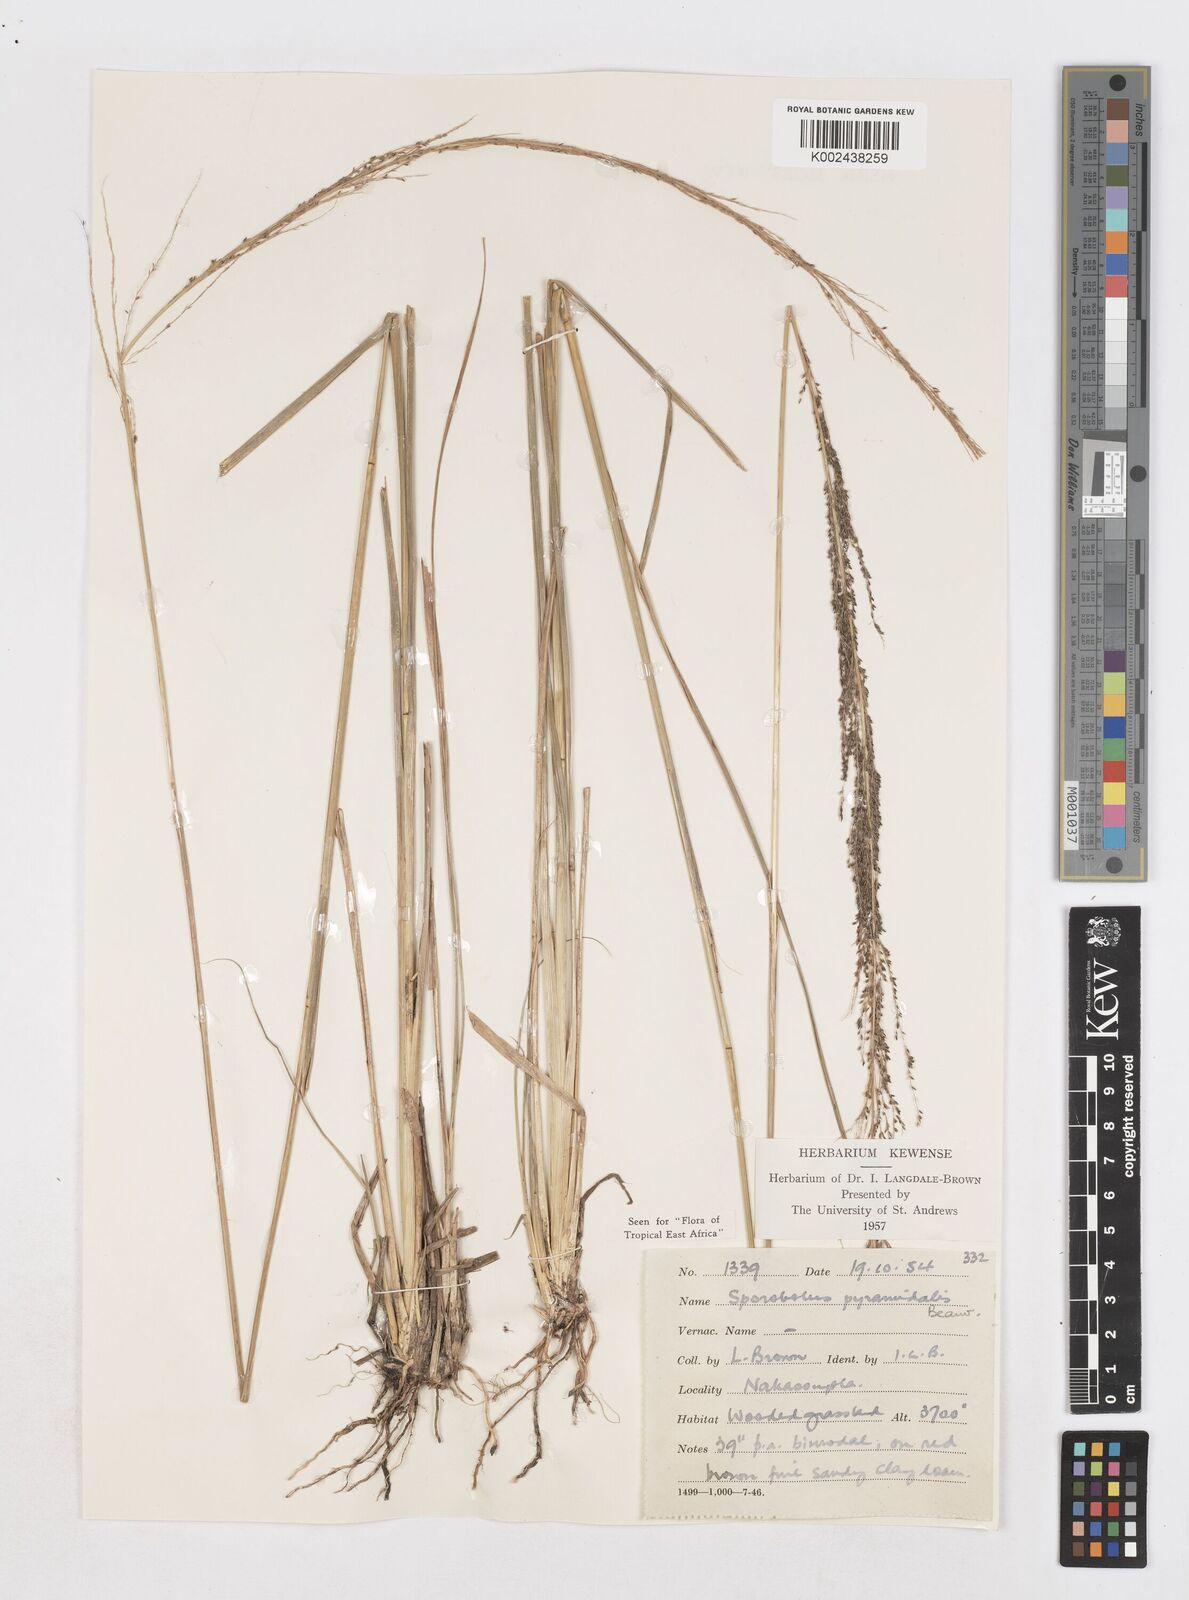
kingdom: Plantae
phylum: Tracheophyta
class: Liliopsida
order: Poales
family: Poaceae
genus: Sporobolus
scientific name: Sporobolus pyramidalis
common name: West indian dropseed
